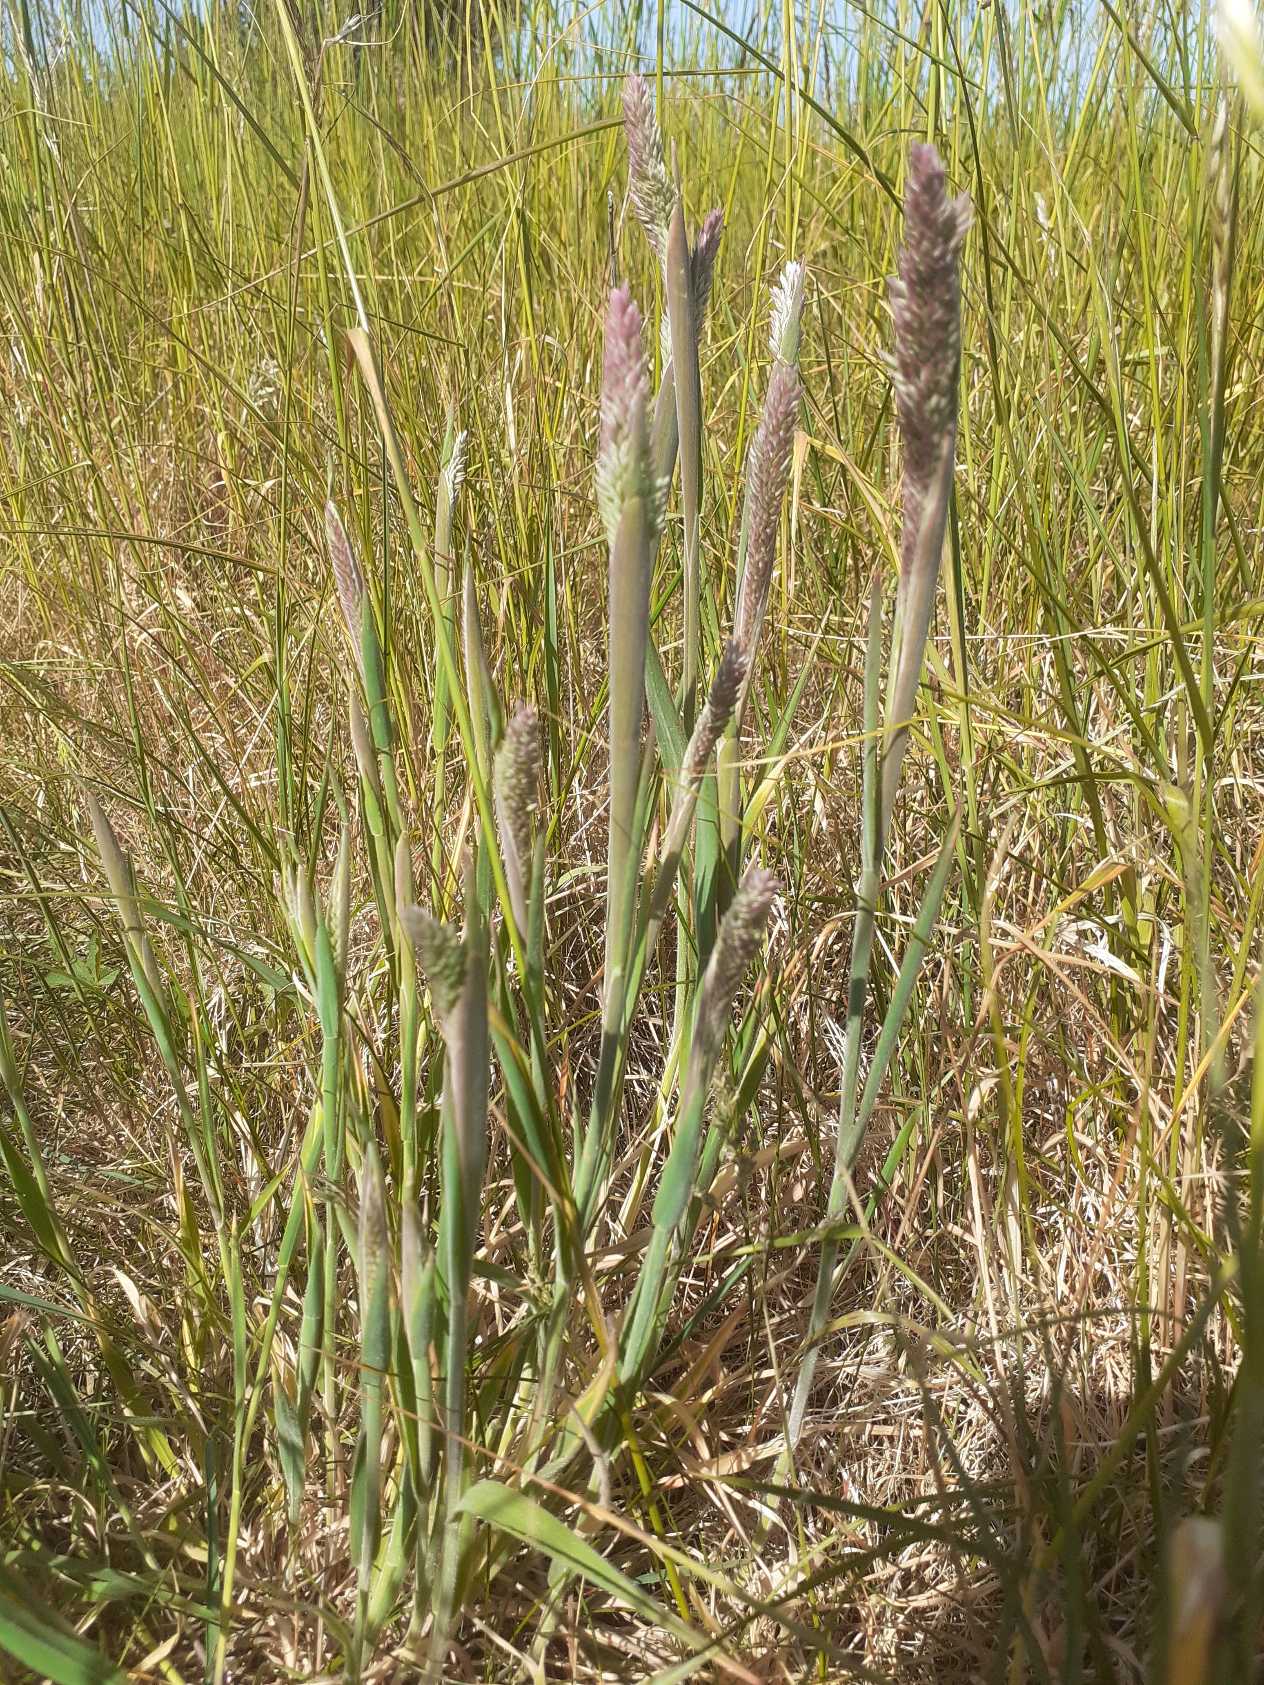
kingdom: Plantae
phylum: Tracheophyta
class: Liliopsida
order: Poales
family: Poaceae
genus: Holcus
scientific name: Holcus lanatus
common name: Fløjlsgræs
